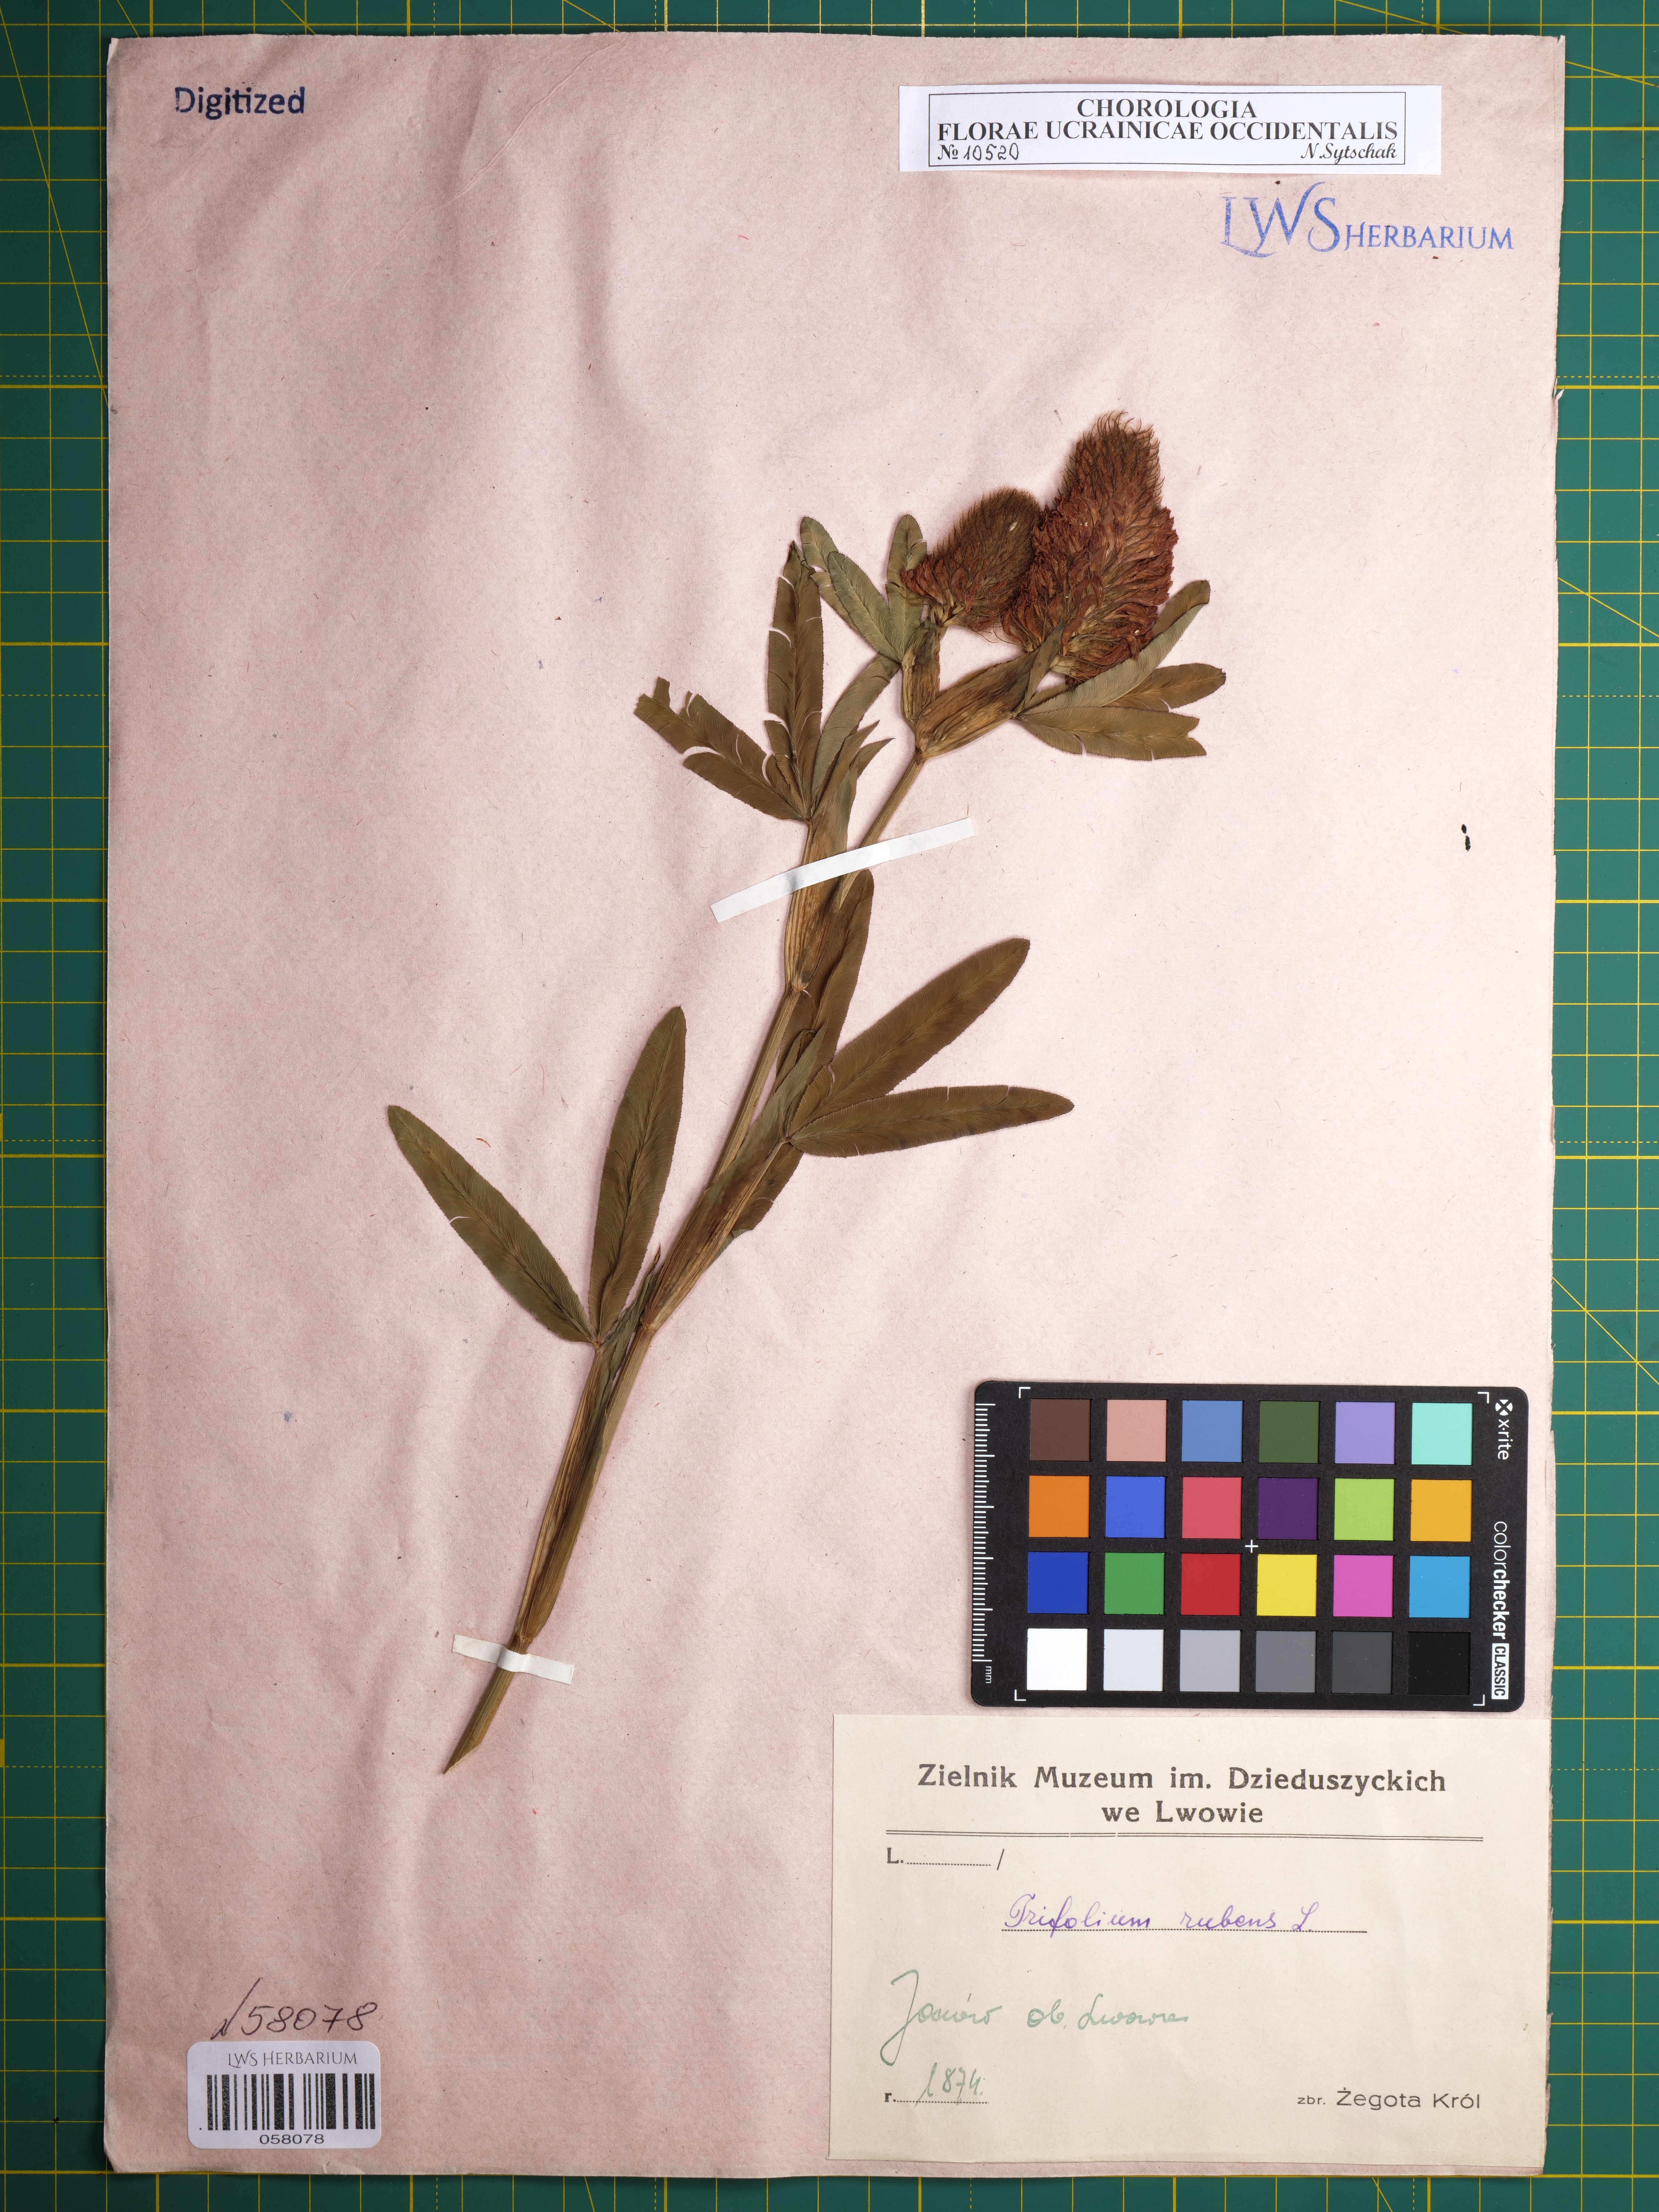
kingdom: Plantae
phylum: Tracheophyta
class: Magnoliopsida
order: Fabales
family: Fabaceae
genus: Trifolium
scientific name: Trifolium rubens
